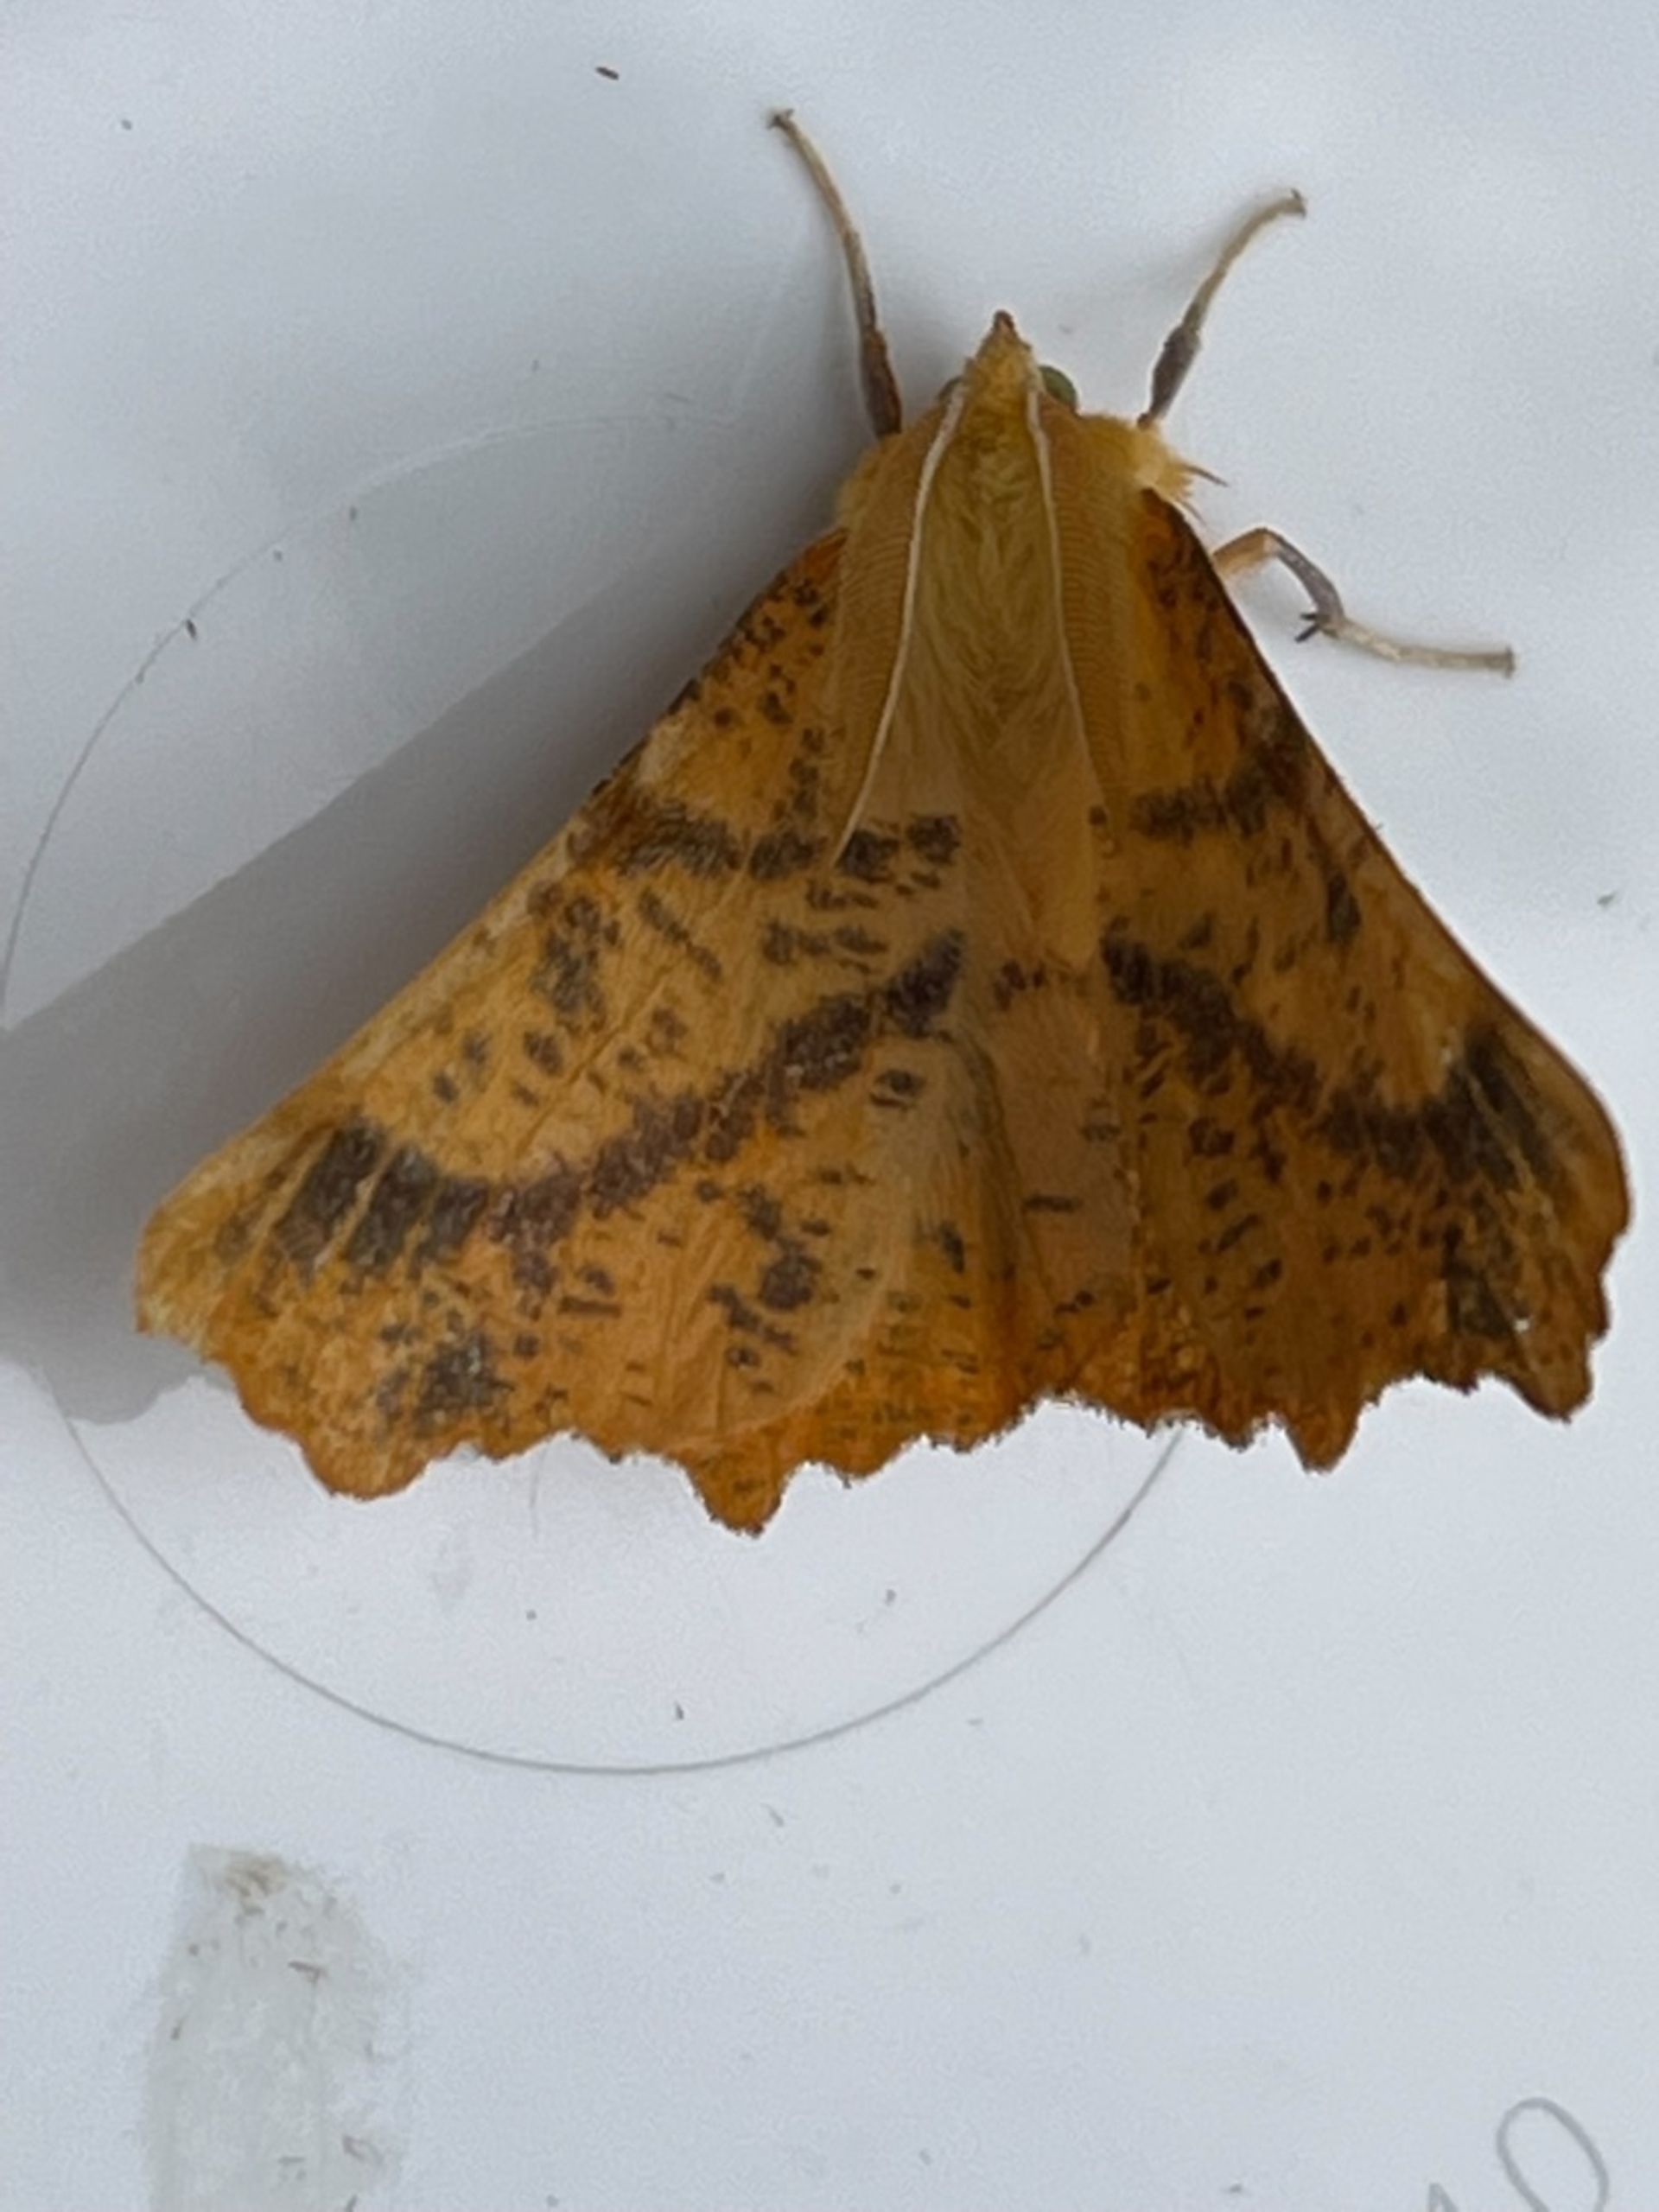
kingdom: Animalia
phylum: Arthropoda
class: Insecta
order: Lepidoptera
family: Geometridae
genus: Ennomos
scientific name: Ennomos autumnaria
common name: Stor tandmåler
